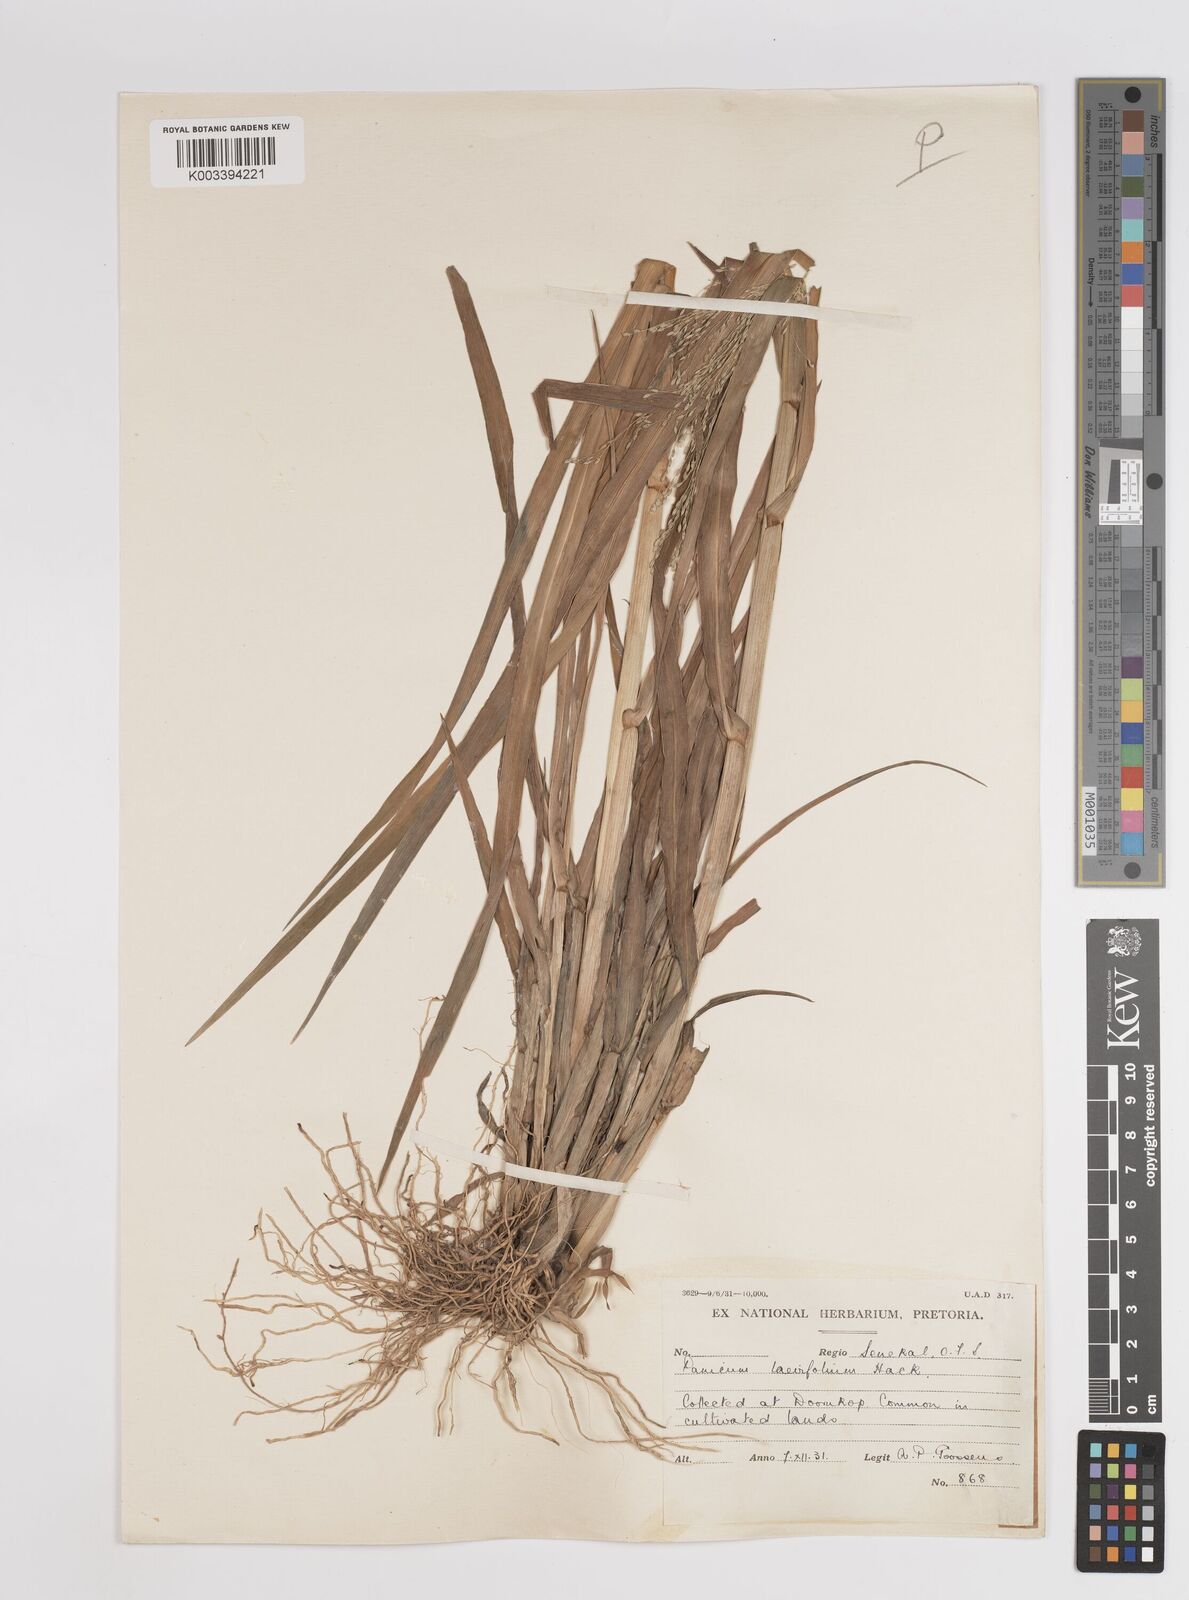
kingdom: Plantae
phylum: Tracheophyta
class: Liliopsida
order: Poales
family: Poaceae
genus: Panicum
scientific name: Panicum schinzii
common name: Sweet grass
